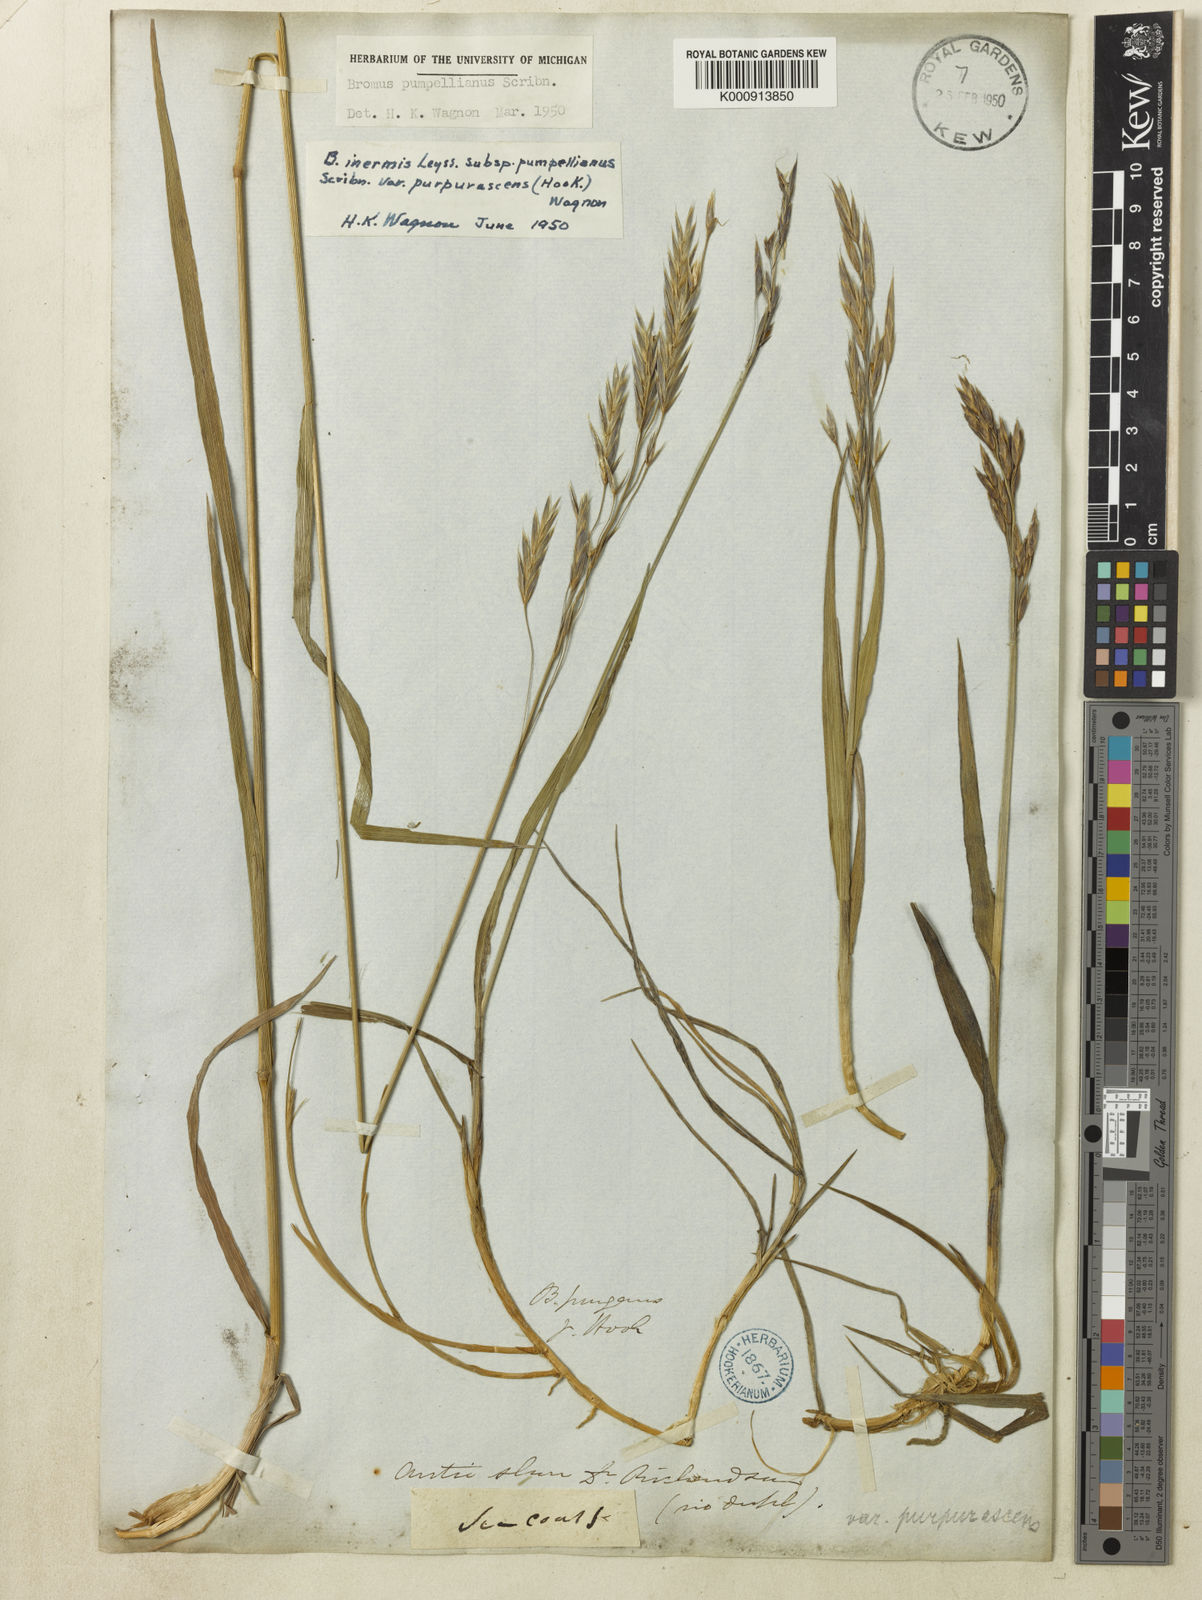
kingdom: Plantae
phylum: Tracheophyta
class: Liliopsida
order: Poales
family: Poaceae
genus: Bromus
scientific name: Bromus pumpellianus
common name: Pumpelly's brome
